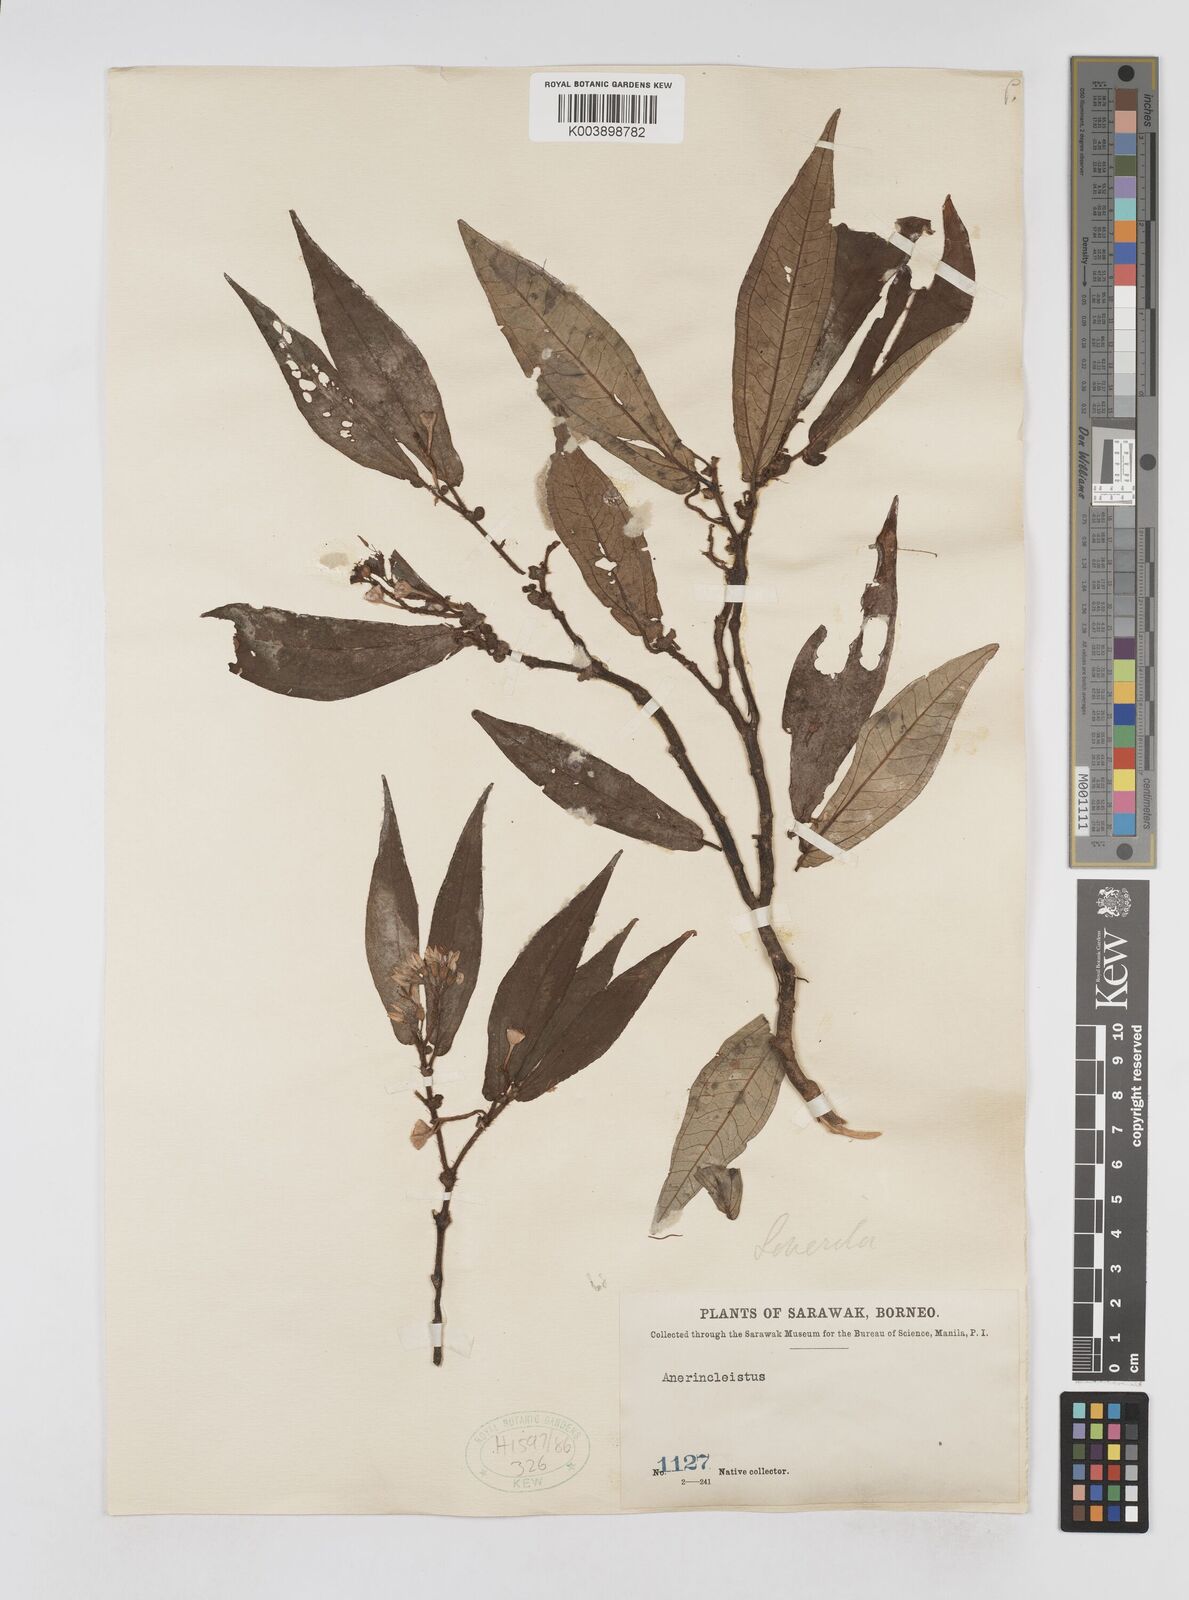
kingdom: Plantae
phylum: Tracheophyta
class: Magnoliopsida
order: Myrtales
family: Melastomataceae
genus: Sonerila
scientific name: Sonerila
